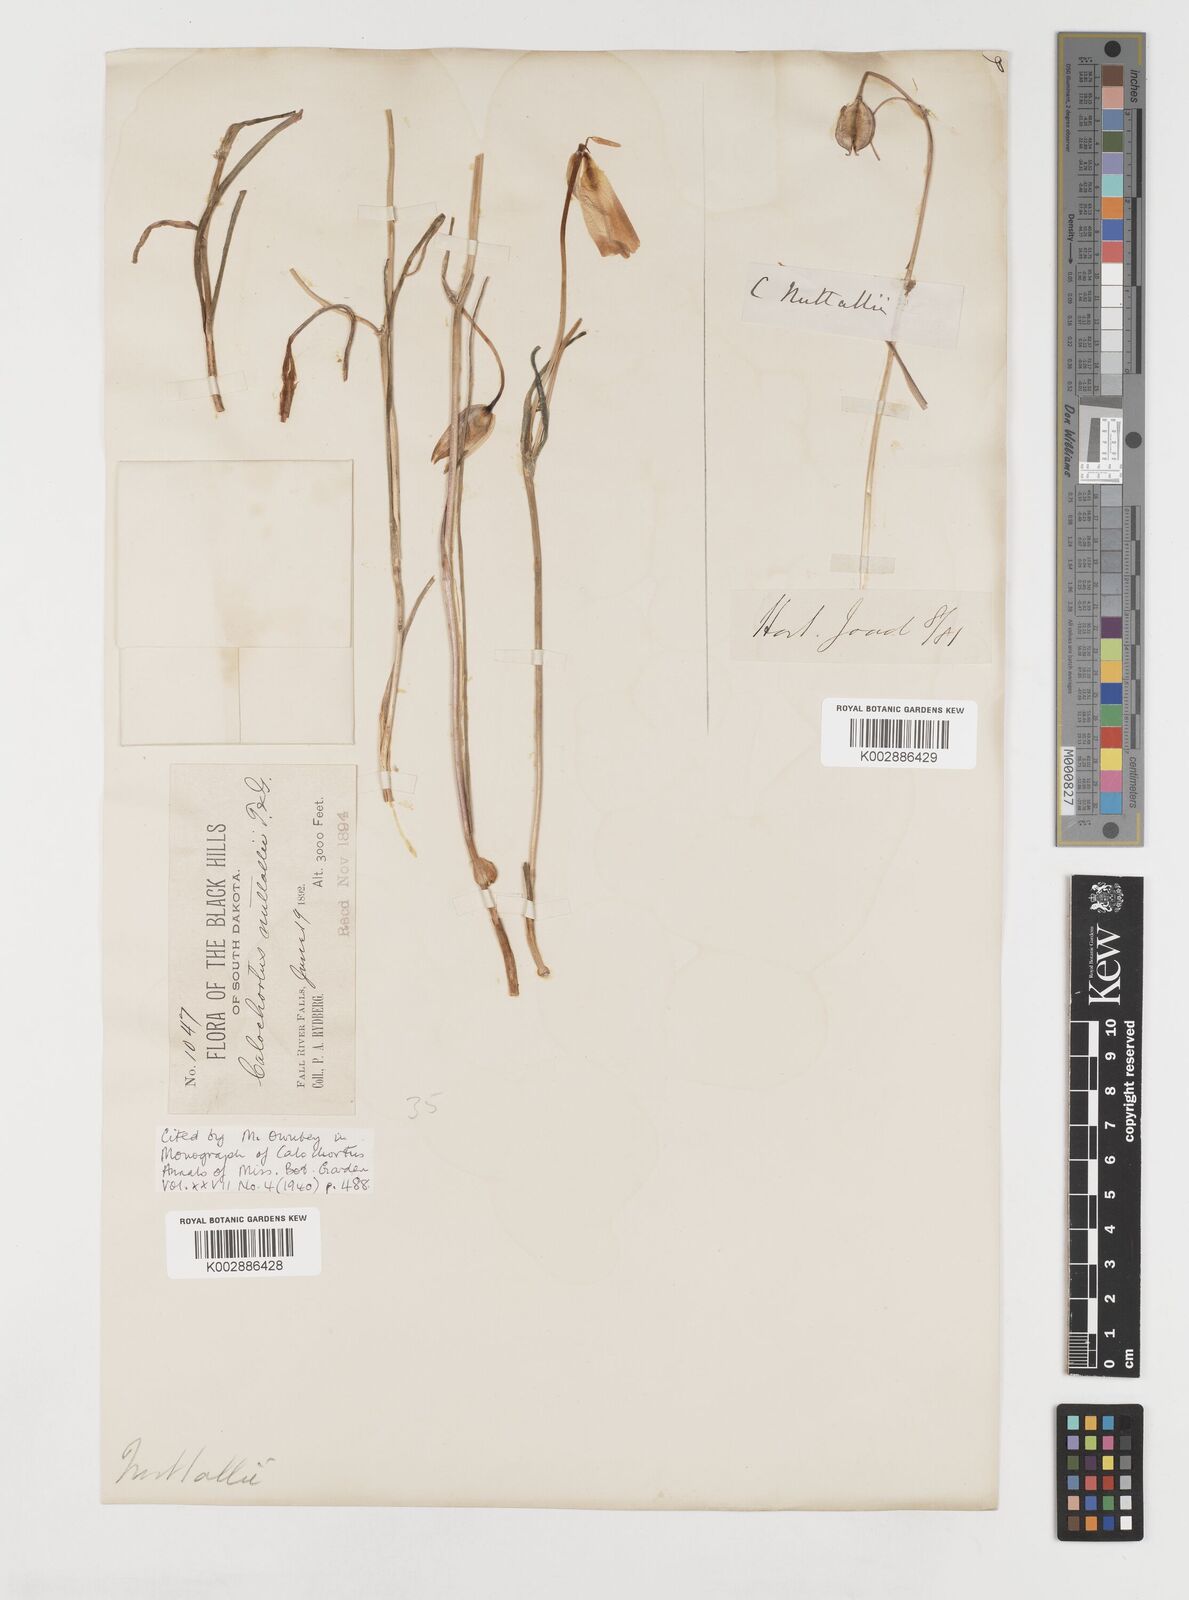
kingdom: Plantae
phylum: Tracheophyta
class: Liliopsida
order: Liliales
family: Liliaceae
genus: Calochortus
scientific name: Calochortus nuttallii
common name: Sego-lily
